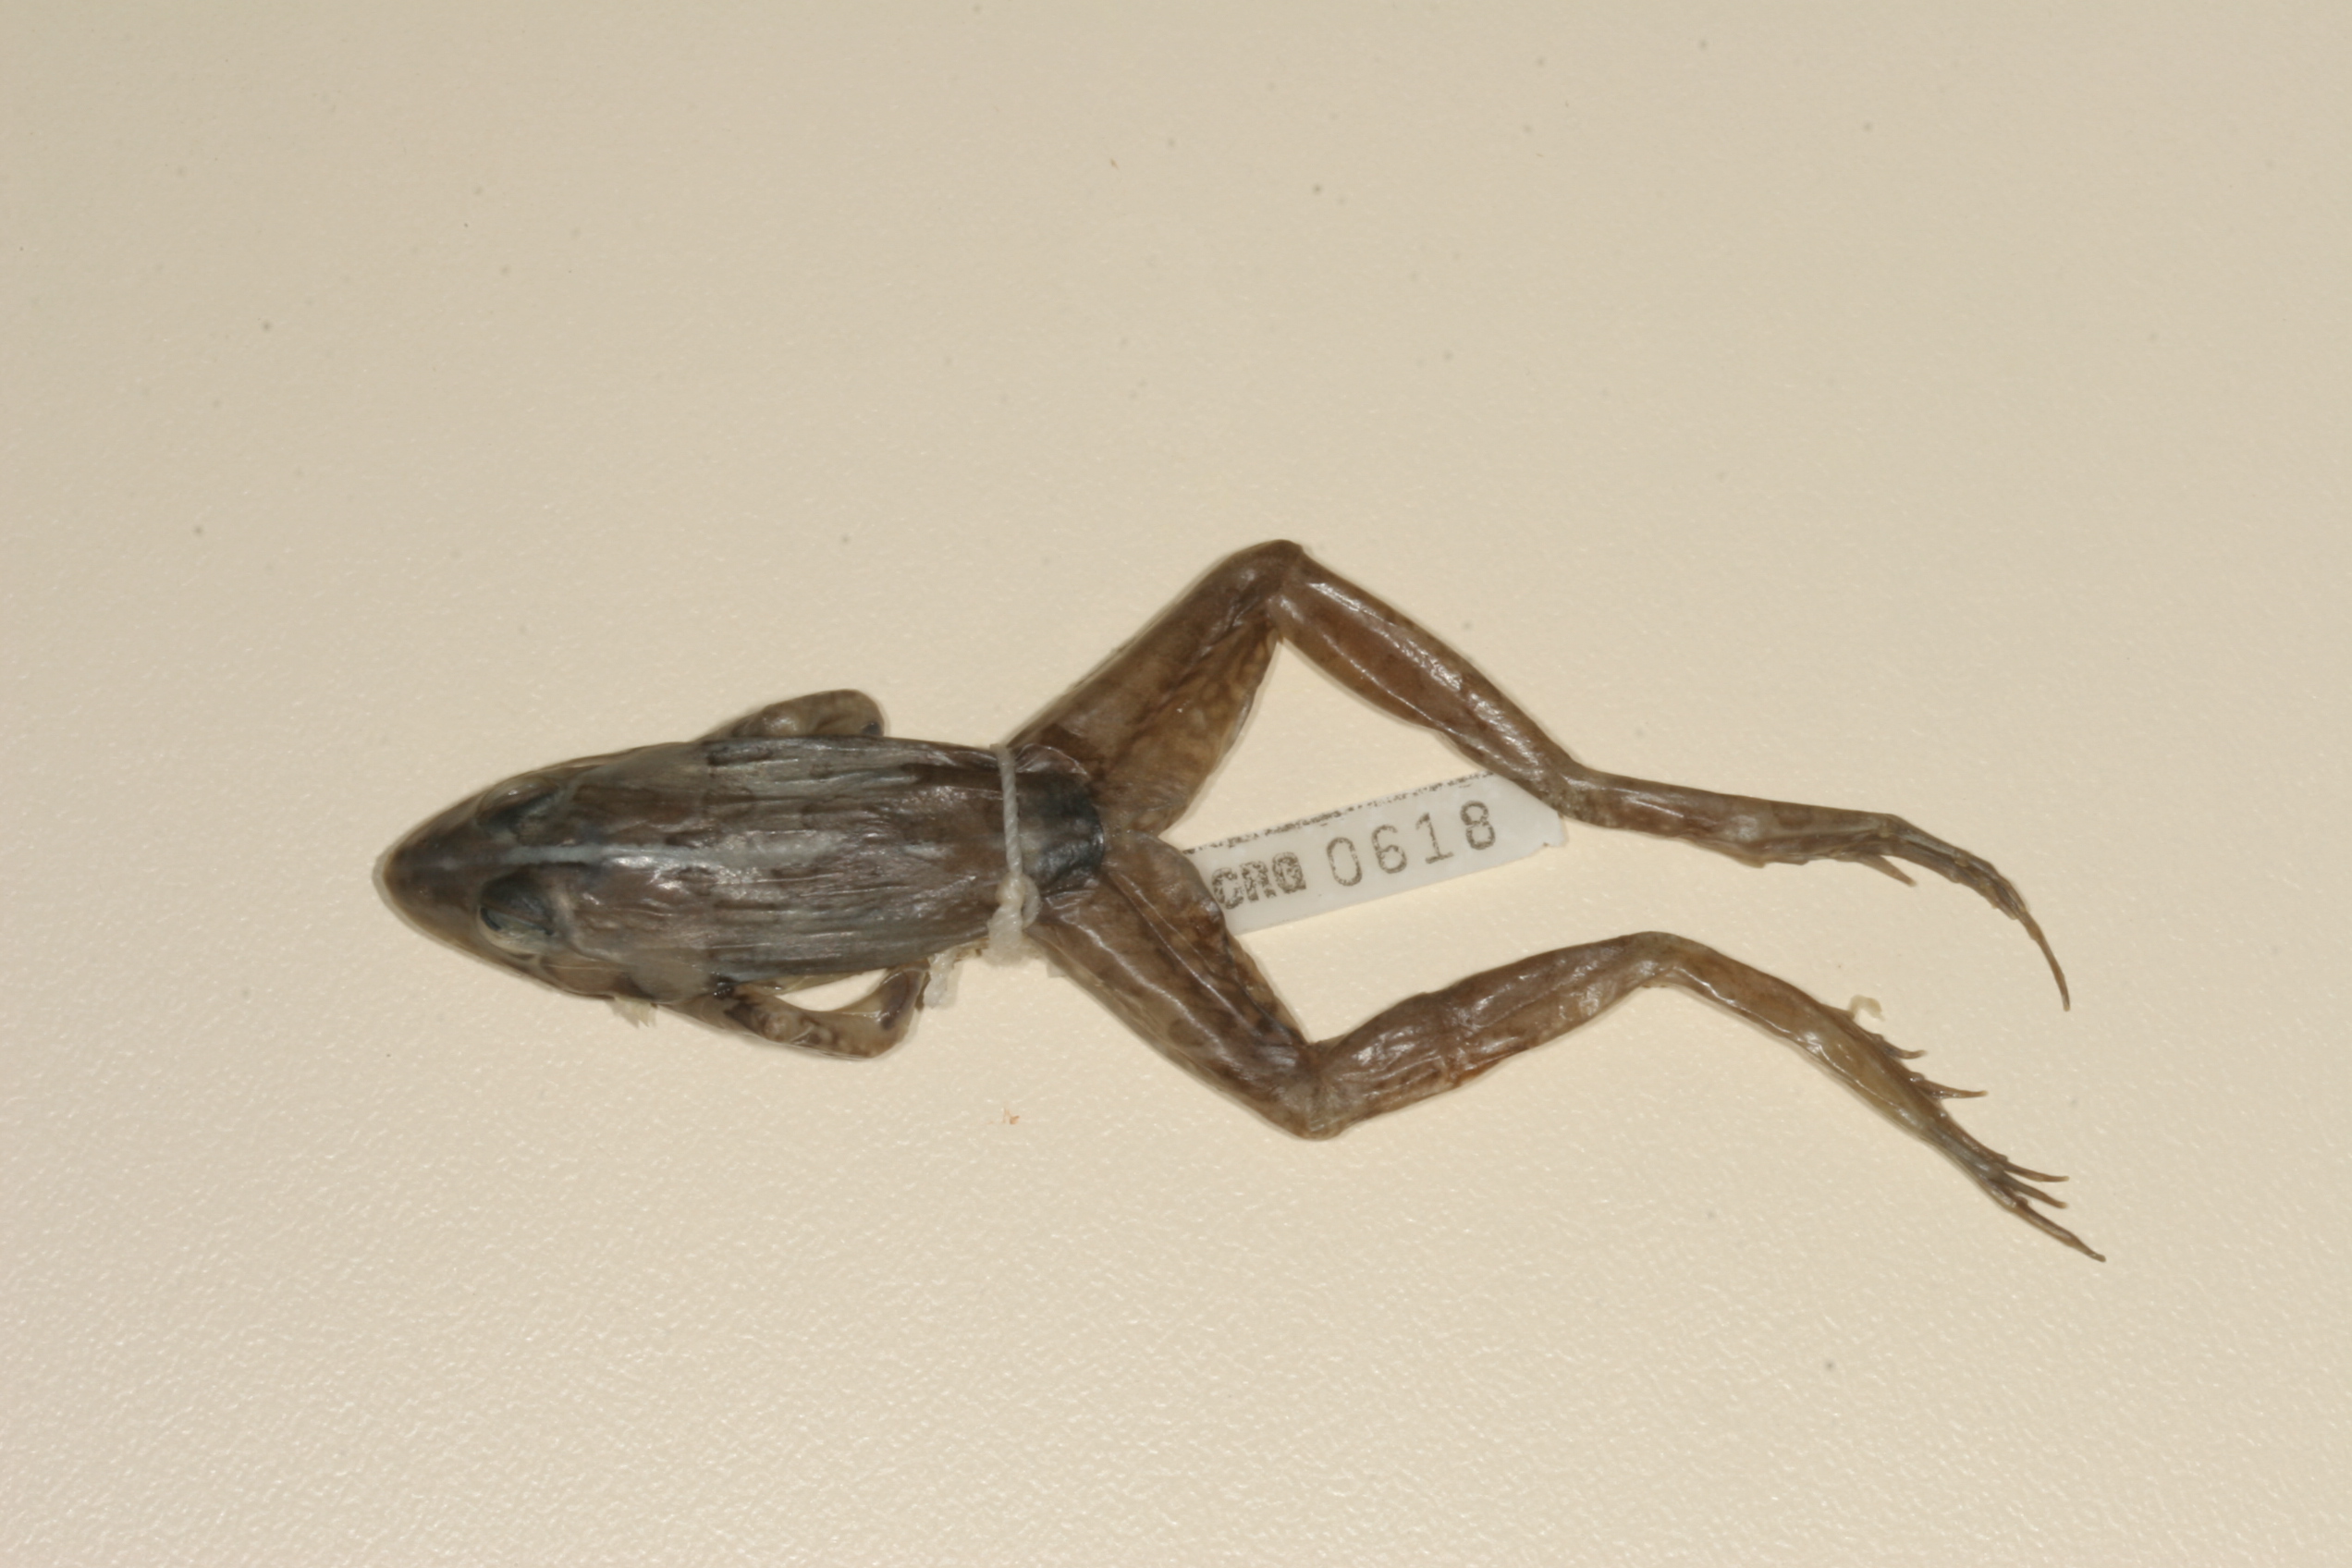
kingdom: Animalia
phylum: Chordata
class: Amphibia
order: Anura
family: Pyxicephalidae
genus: Amietia
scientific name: Amietia angolensis
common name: Dusky-throated frog
